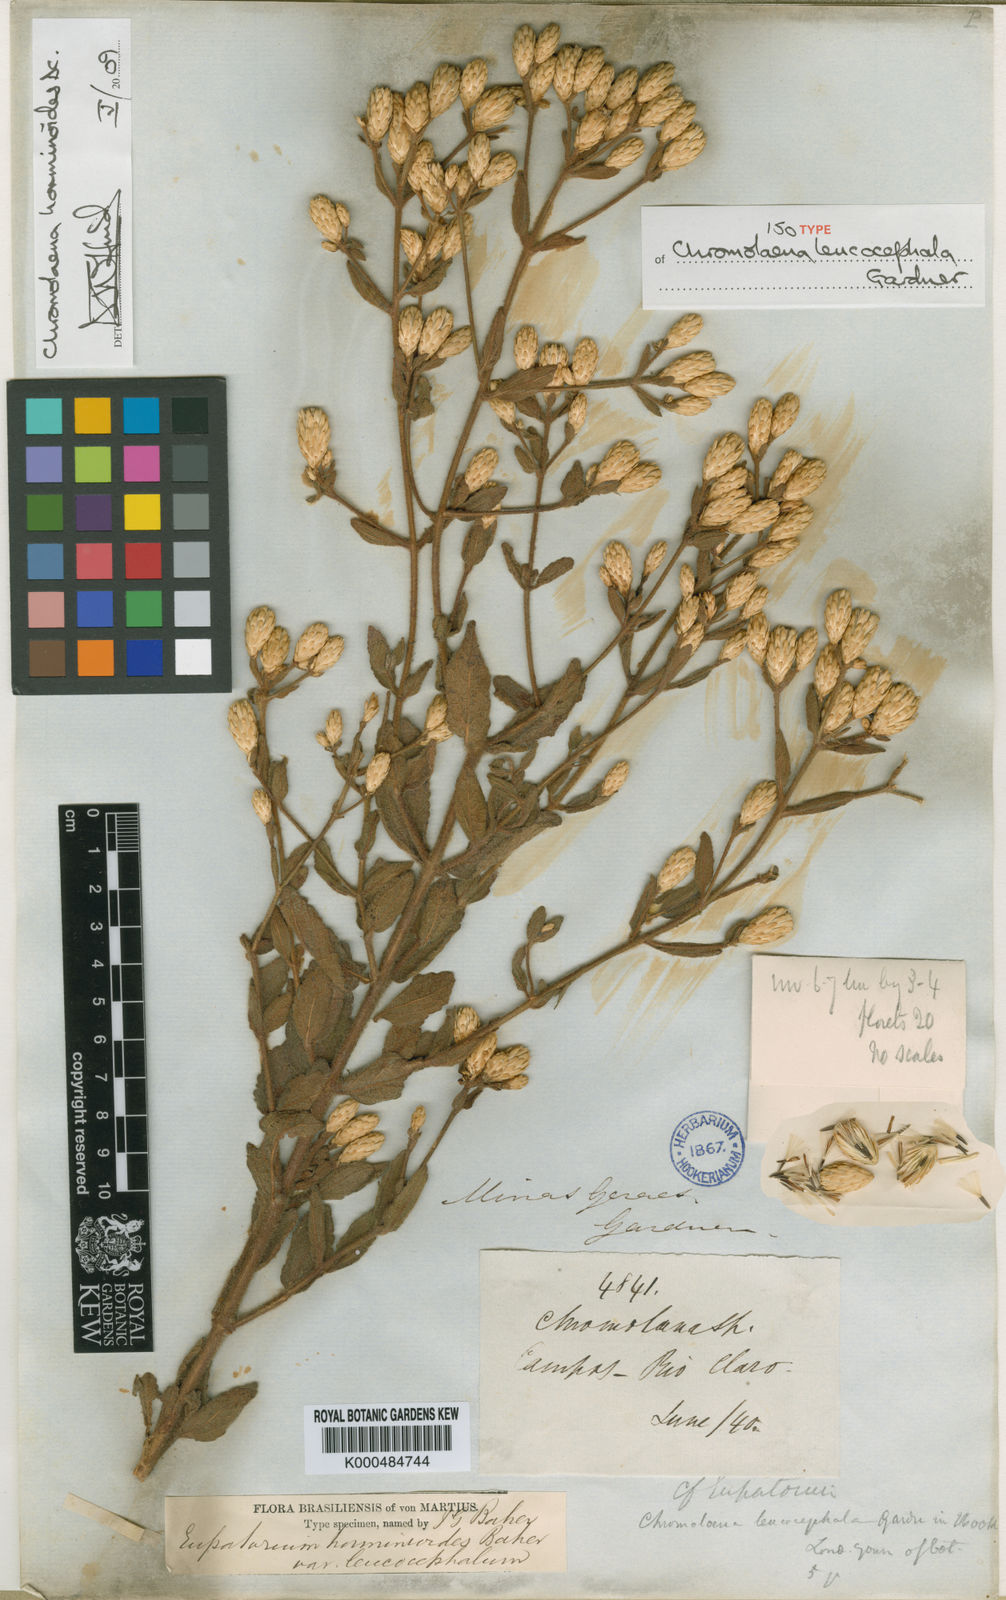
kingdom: Plantae
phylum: Tracheophyta
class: Magnoliopsida
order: Asterales
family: Asteraceae
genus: Chromolaena
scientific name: Chromolaena horminoides
